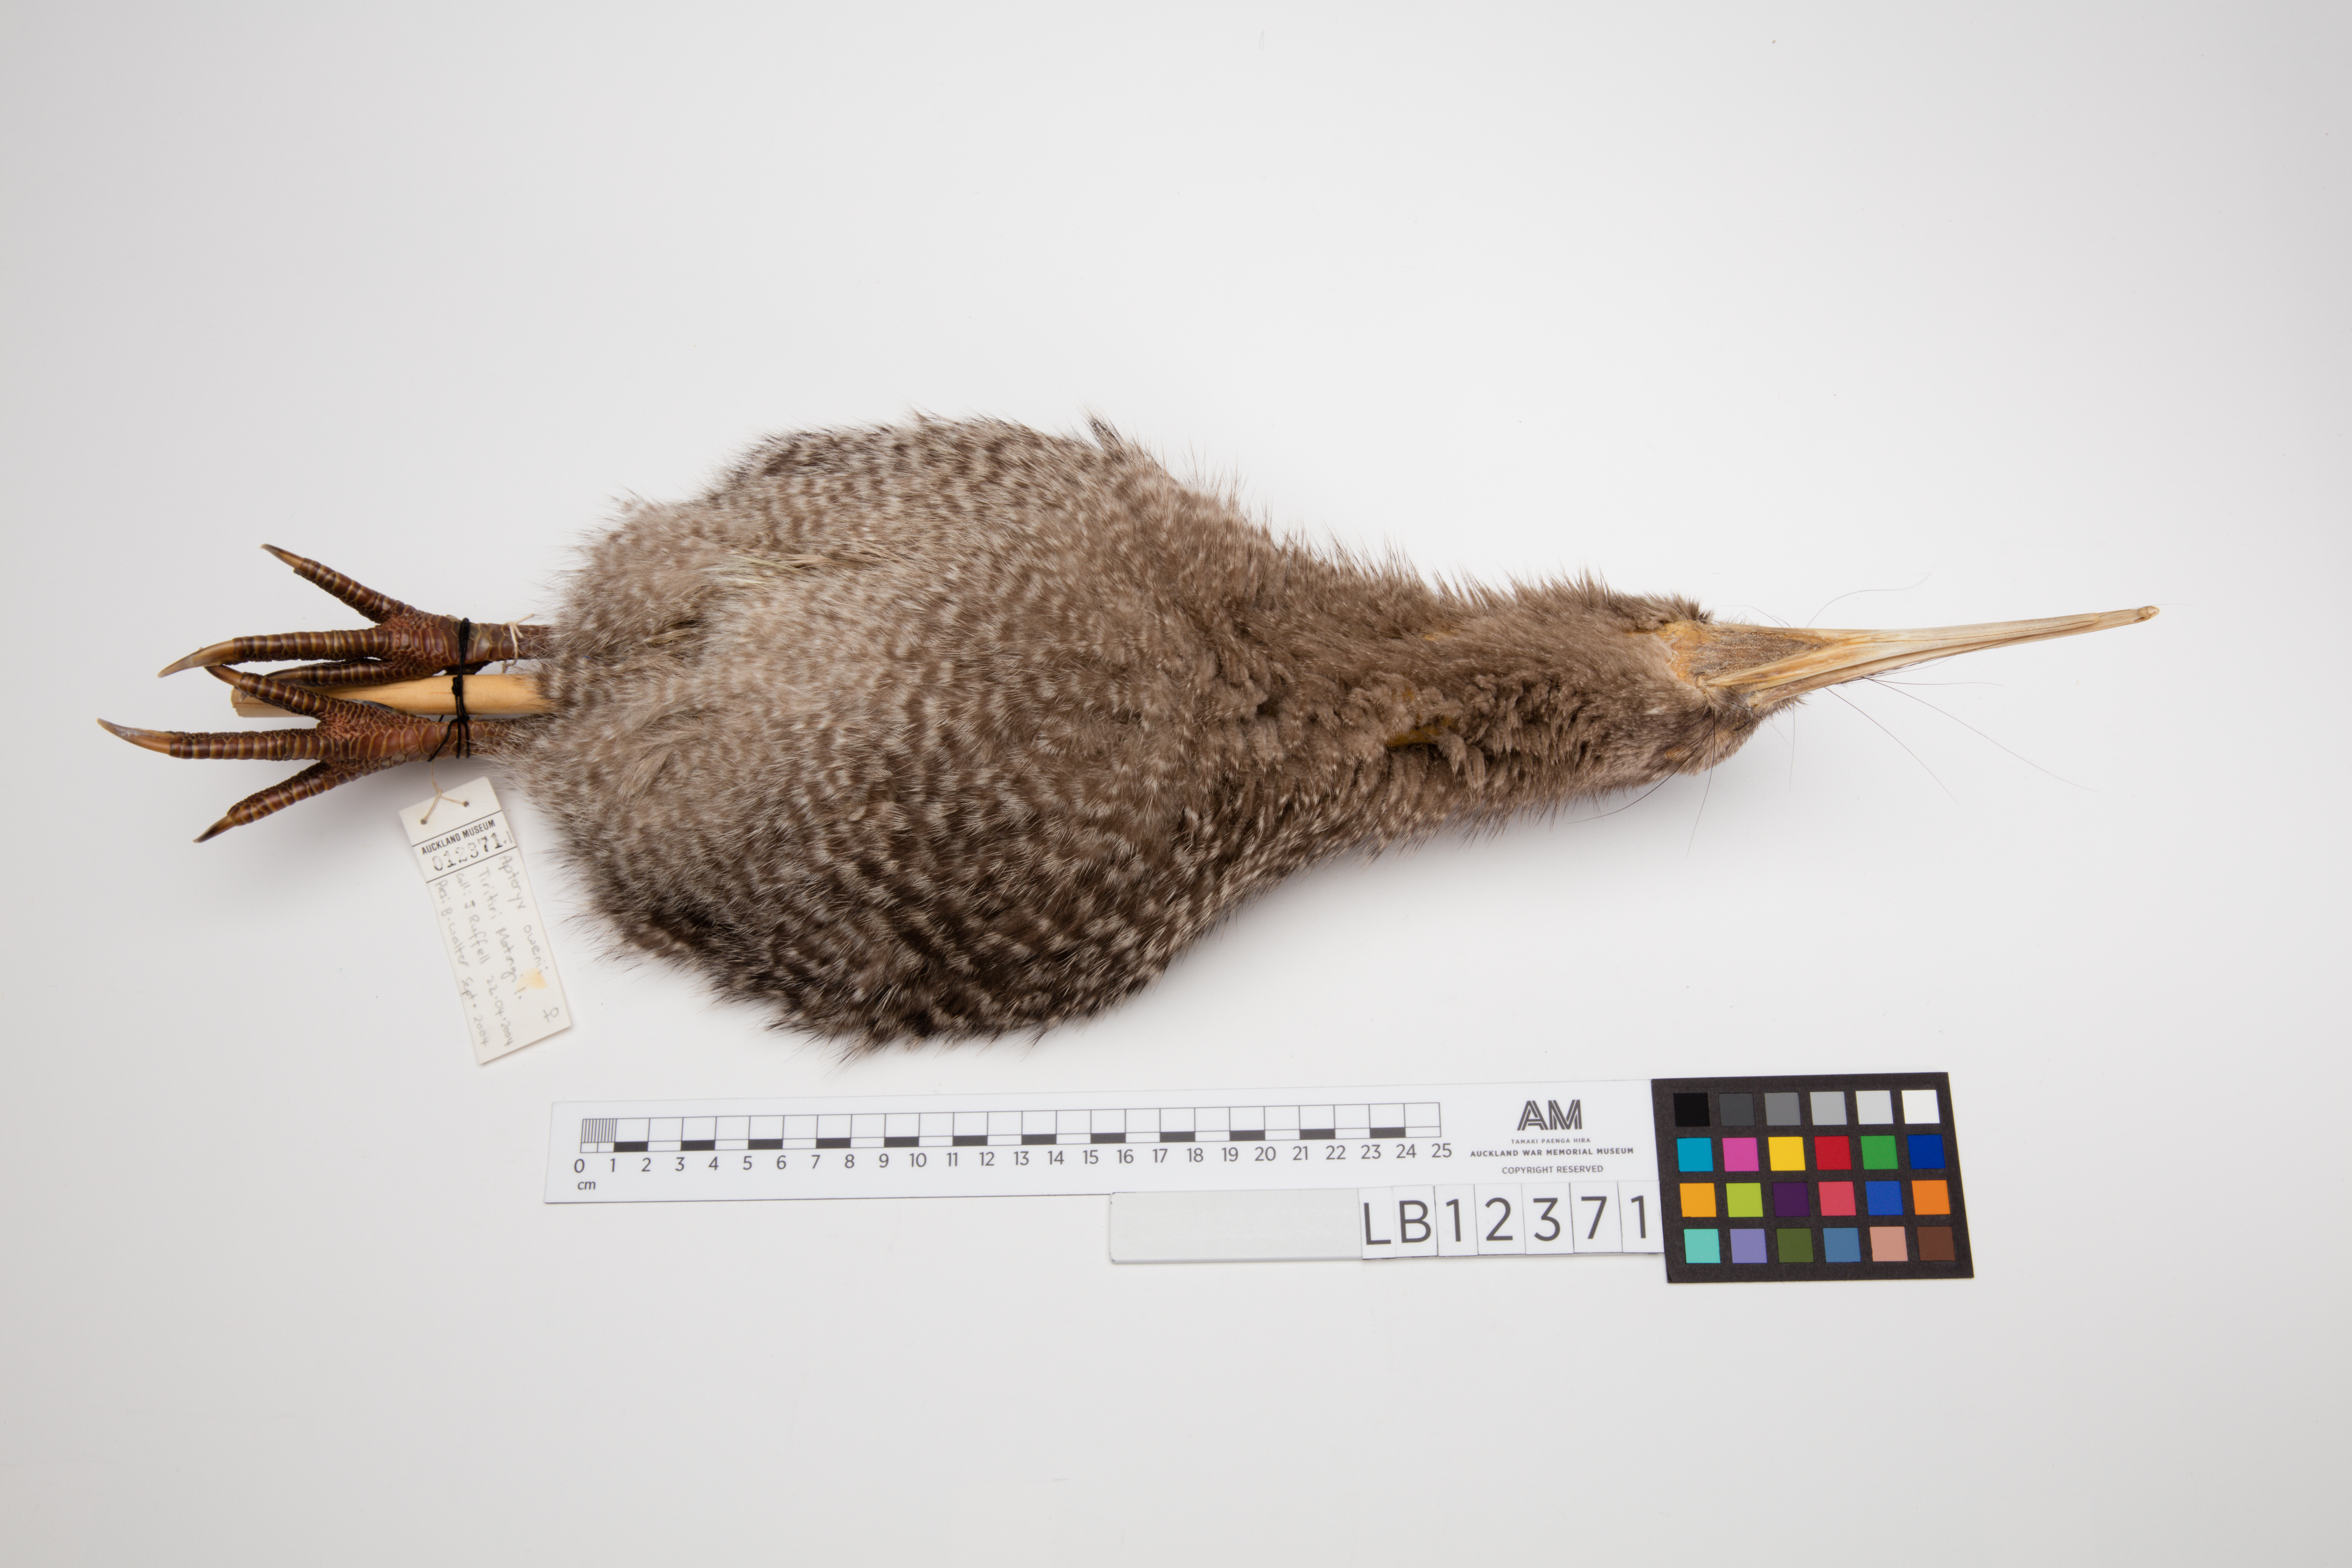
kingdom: Animalia
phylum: Chordata
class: Aves
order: Apterygiformes
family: Apterygidae
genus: Apteryx
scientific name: Apteryx owenii
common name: Little spotted kiwi
